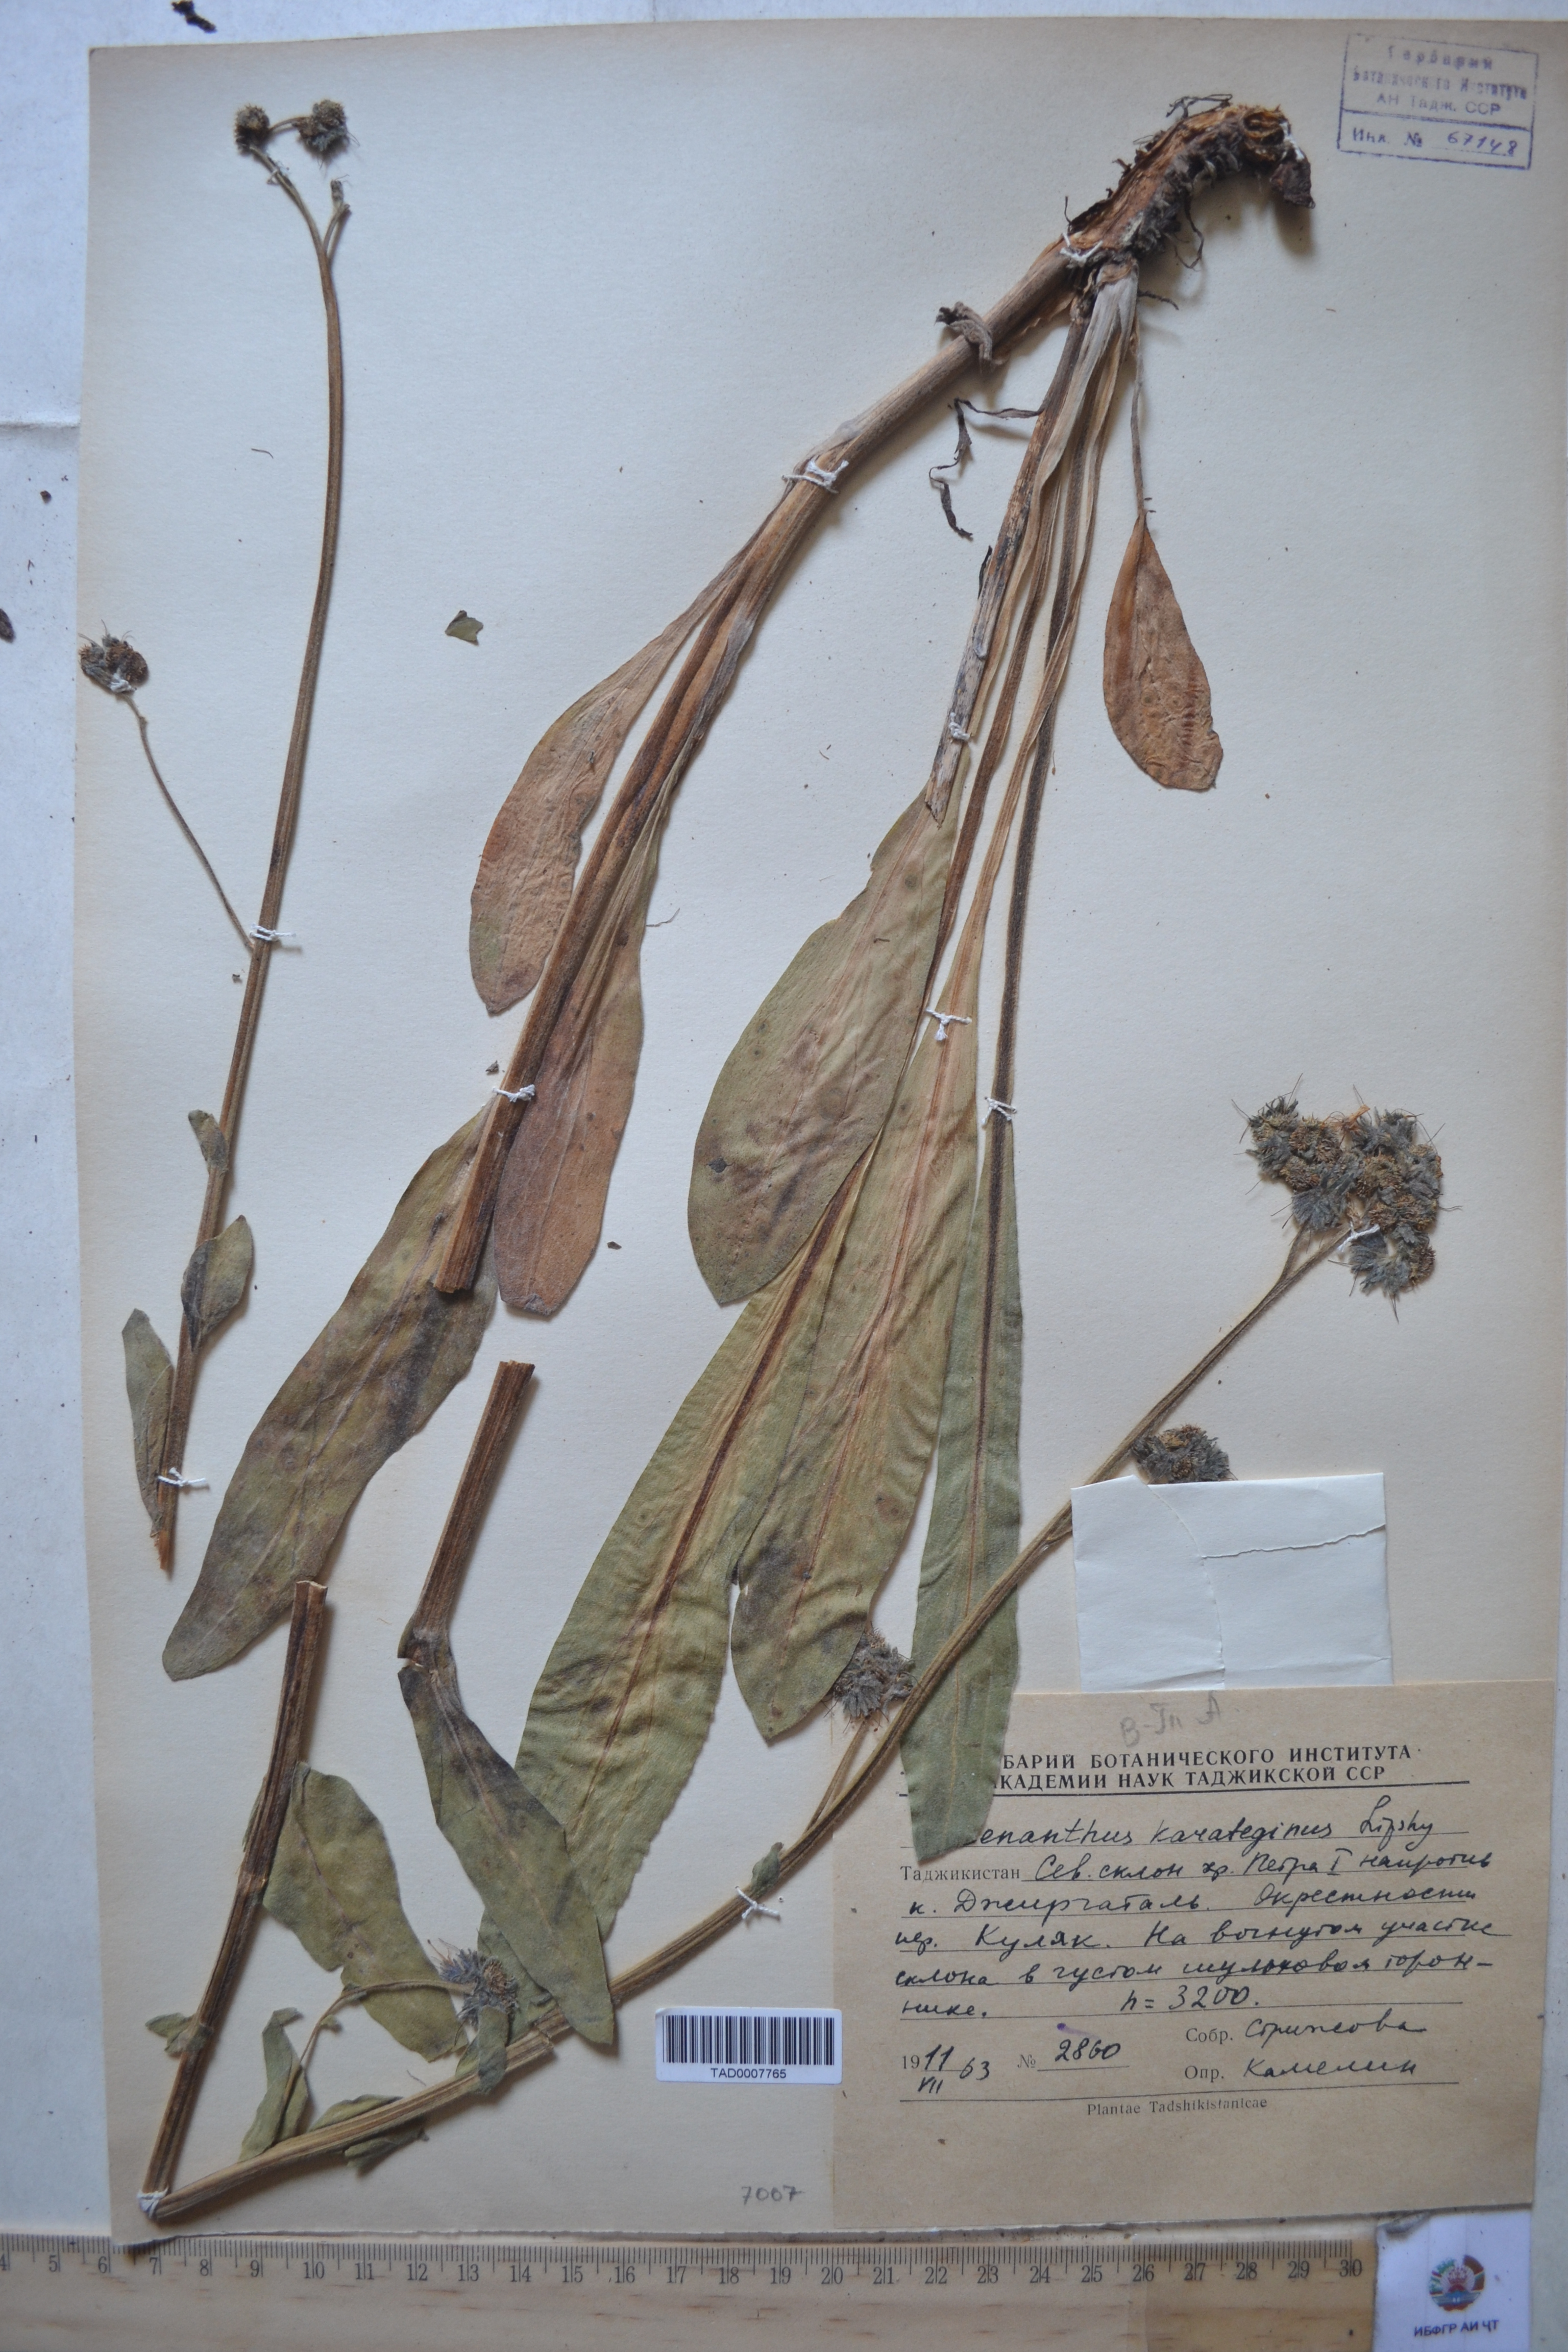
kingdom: Plantae
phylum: Tracheophyta
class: Magnoliopsida
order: Boraginales
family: Boraginaceae
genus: Solenanthus
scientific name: Solenanthus karateginus
